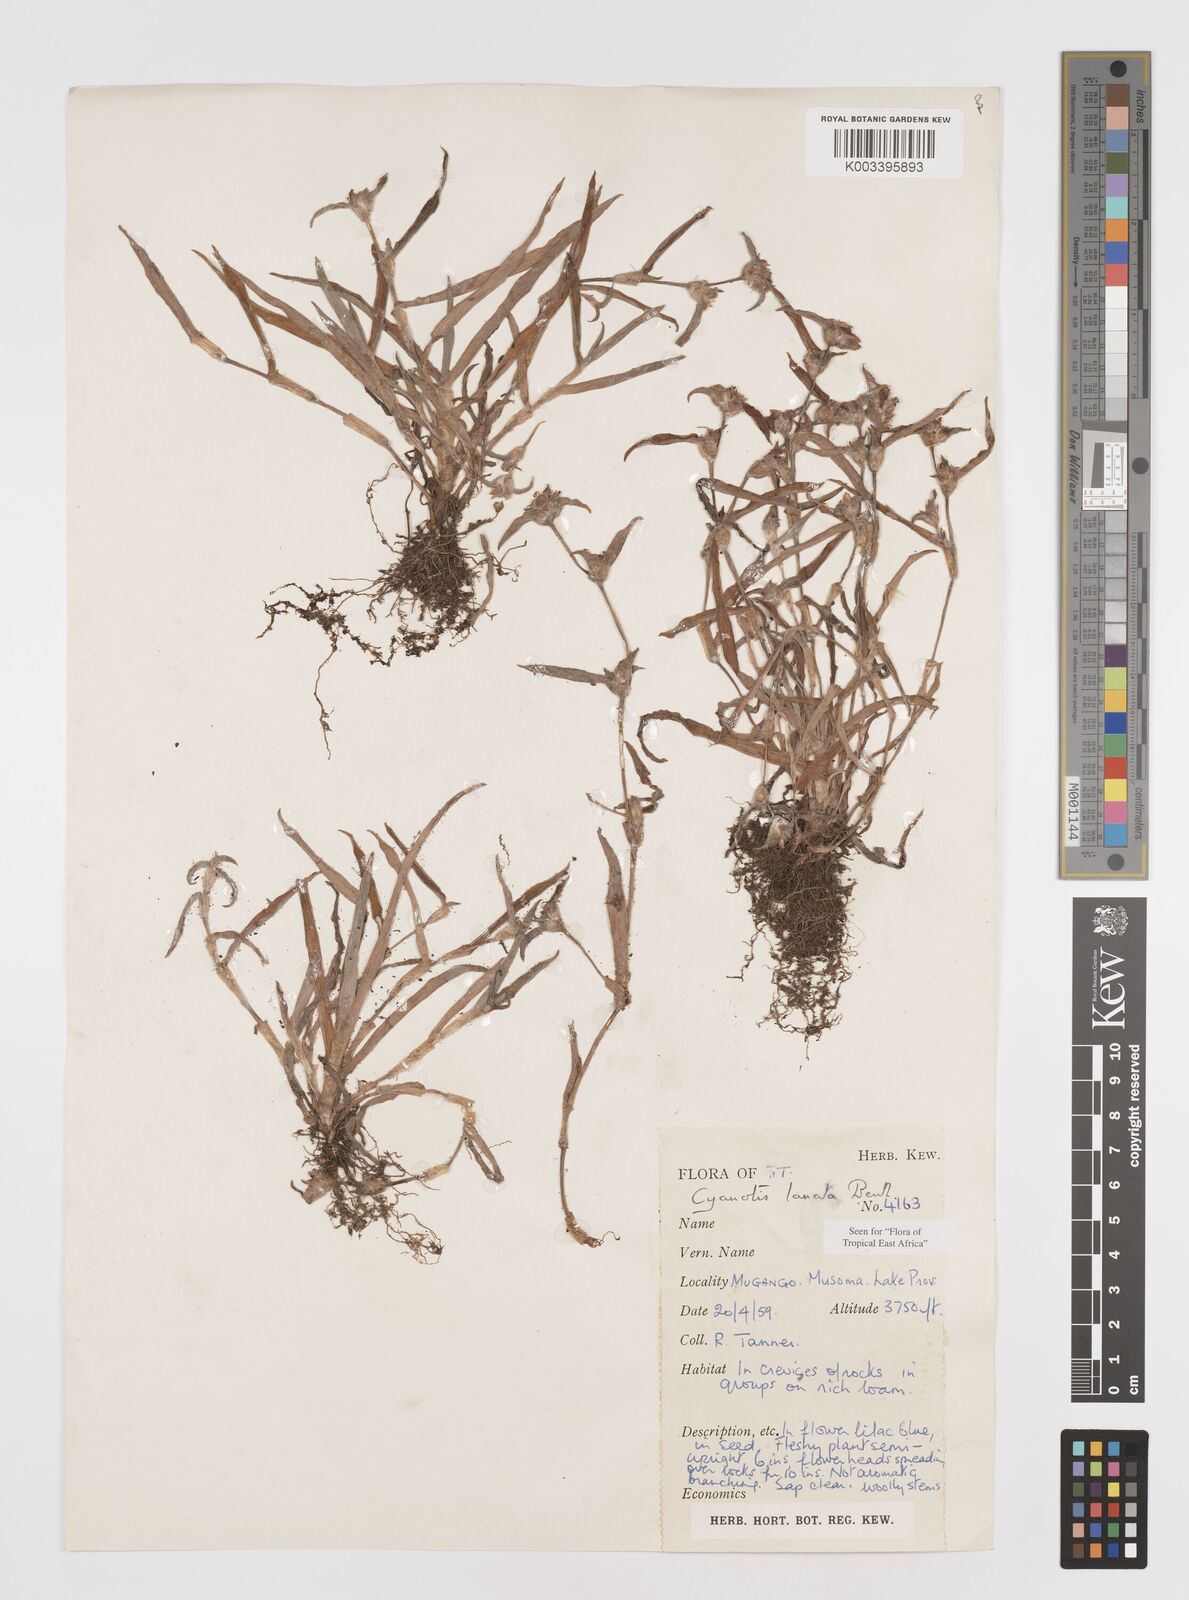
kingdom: Plantae
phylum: Tracheophyta
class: Liliopsida
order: Commelinales
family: Commelinaceae
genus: Cyanotis
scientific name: Cyanotis lanata
